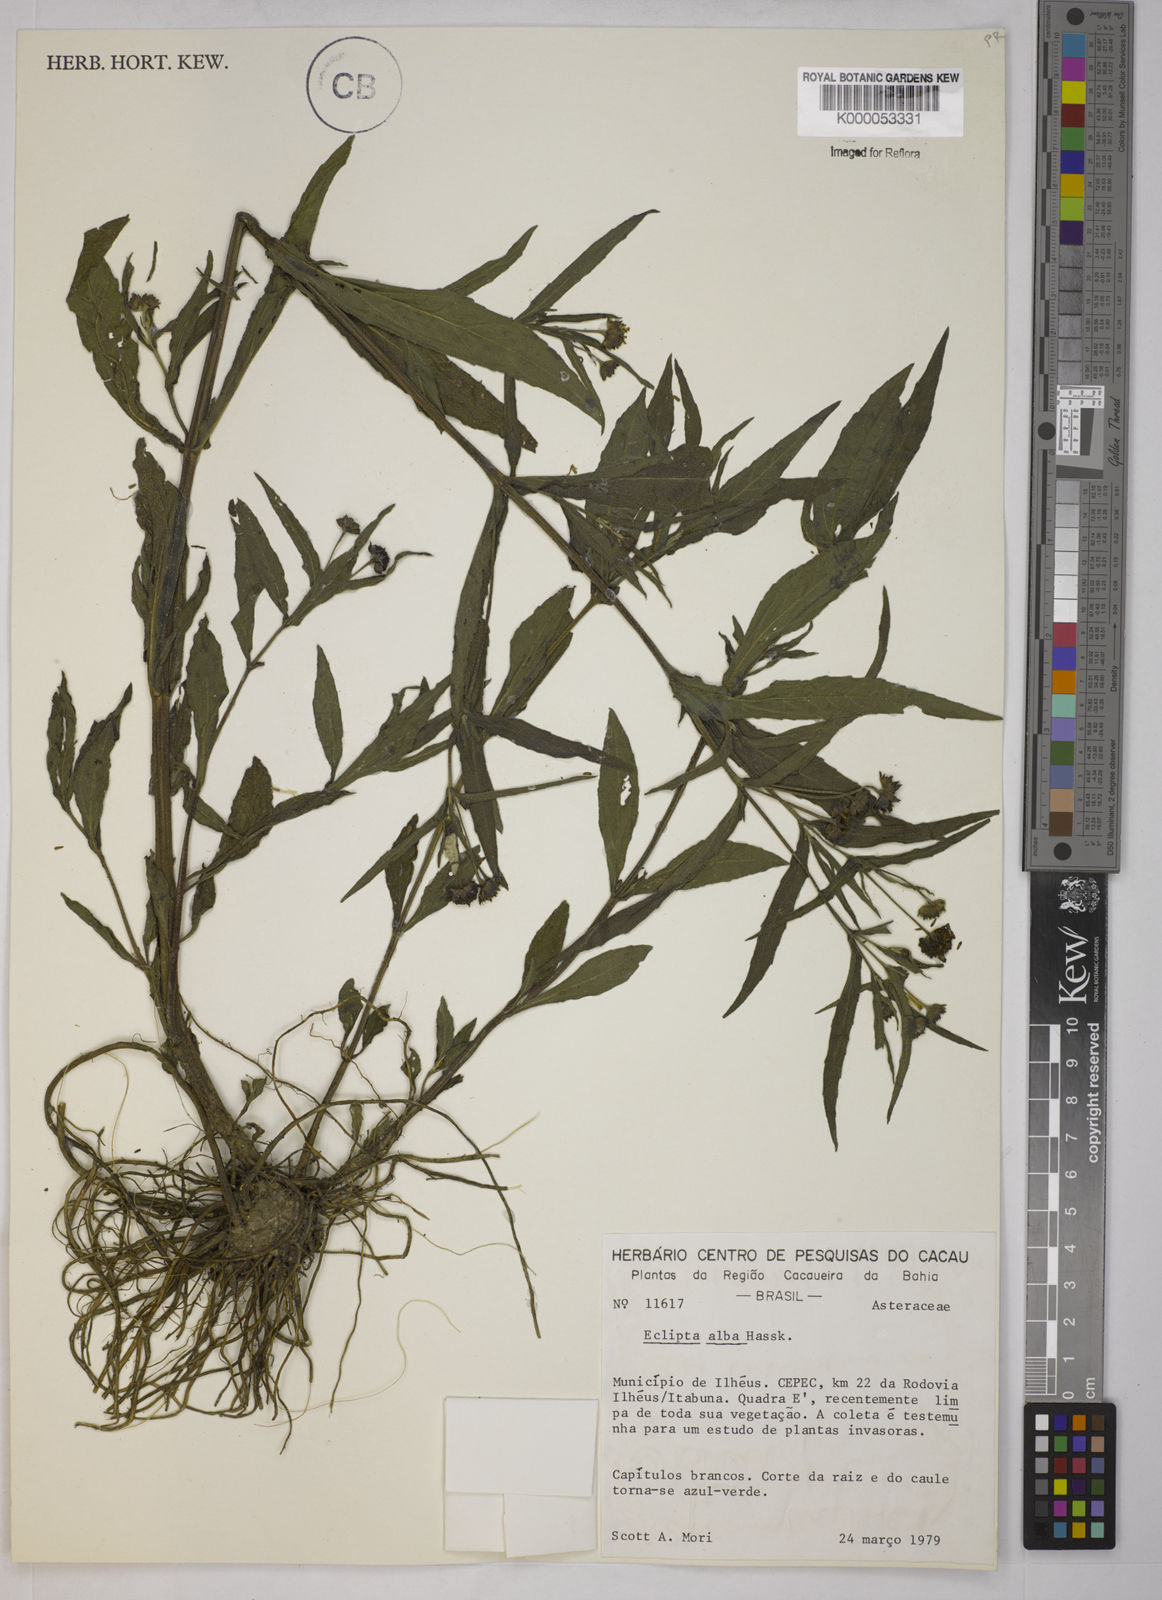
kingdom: Plantae
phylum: Tracheophyta
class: Magnoliopsida
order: Asterales
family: Asteraceae
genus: Eclipta
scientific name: Eclipta prostrata
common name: False daisy
